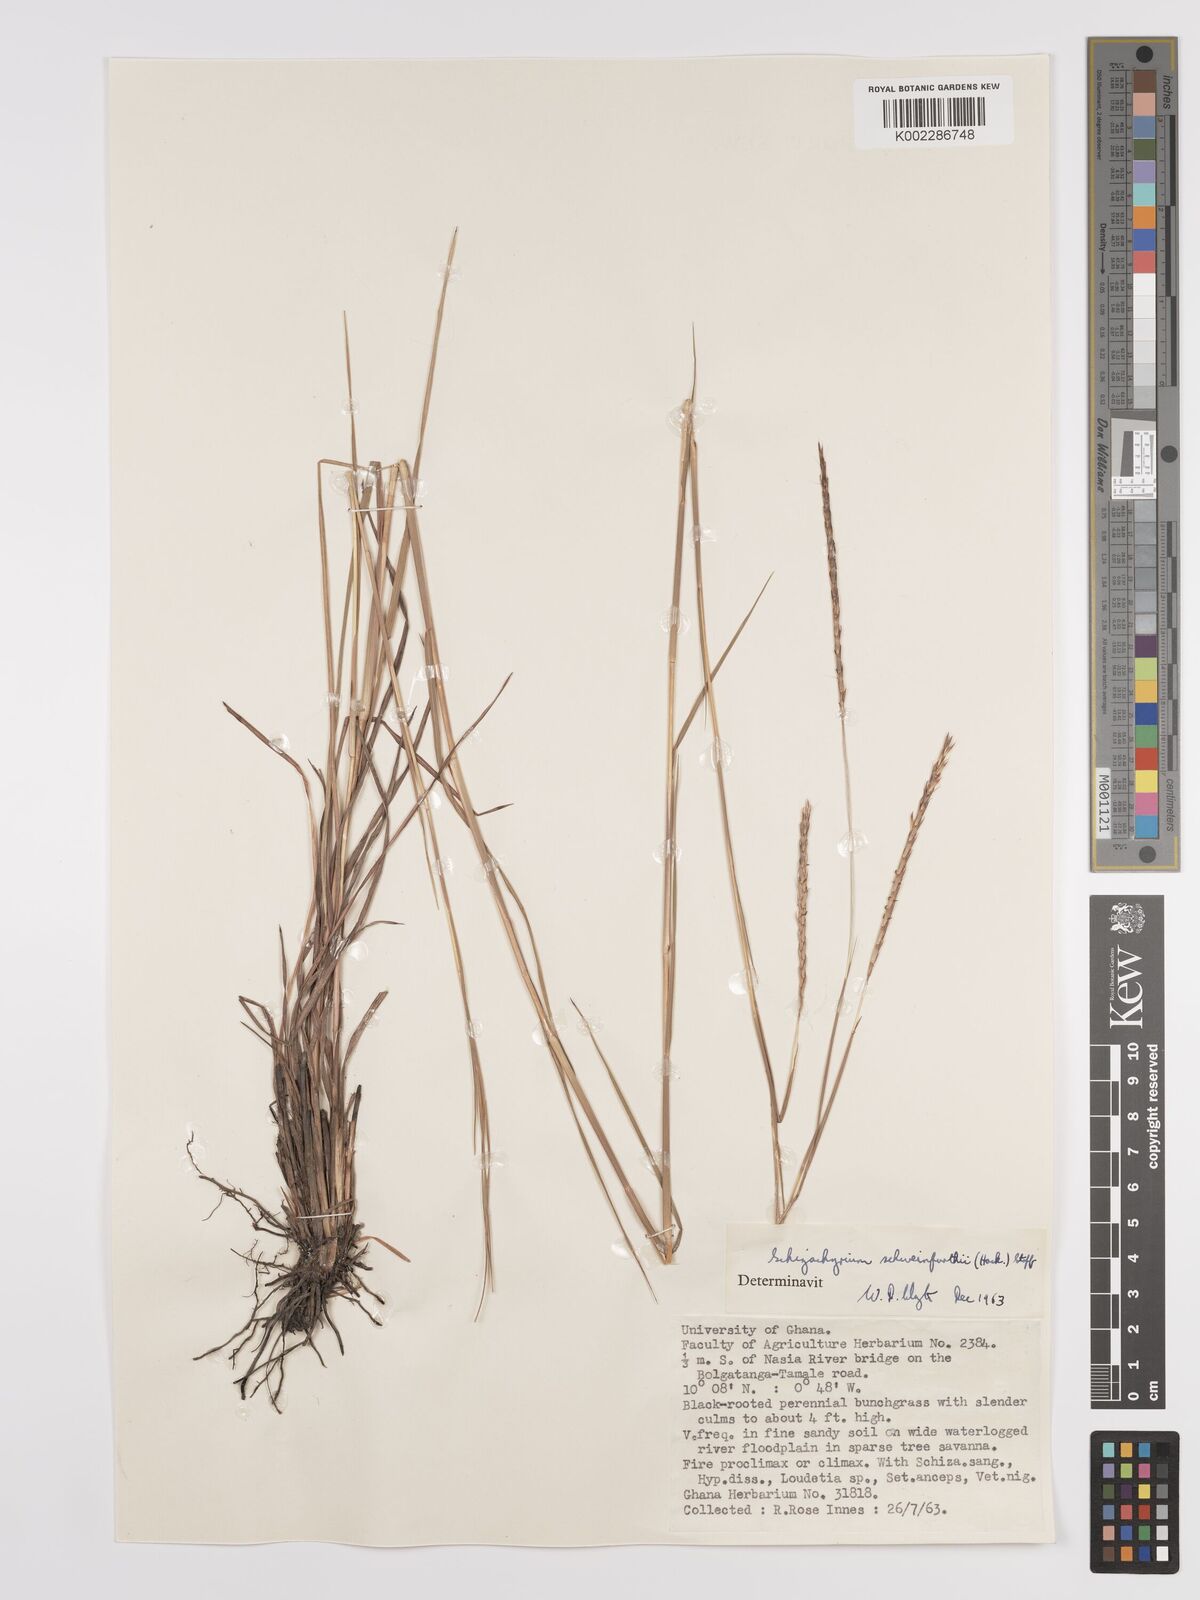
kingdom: Plantae
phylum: Tracheophyta
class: Liliopsida
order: Poales
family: Poaceae
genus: Andropogon
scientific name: Andropogon schweinfurthii
